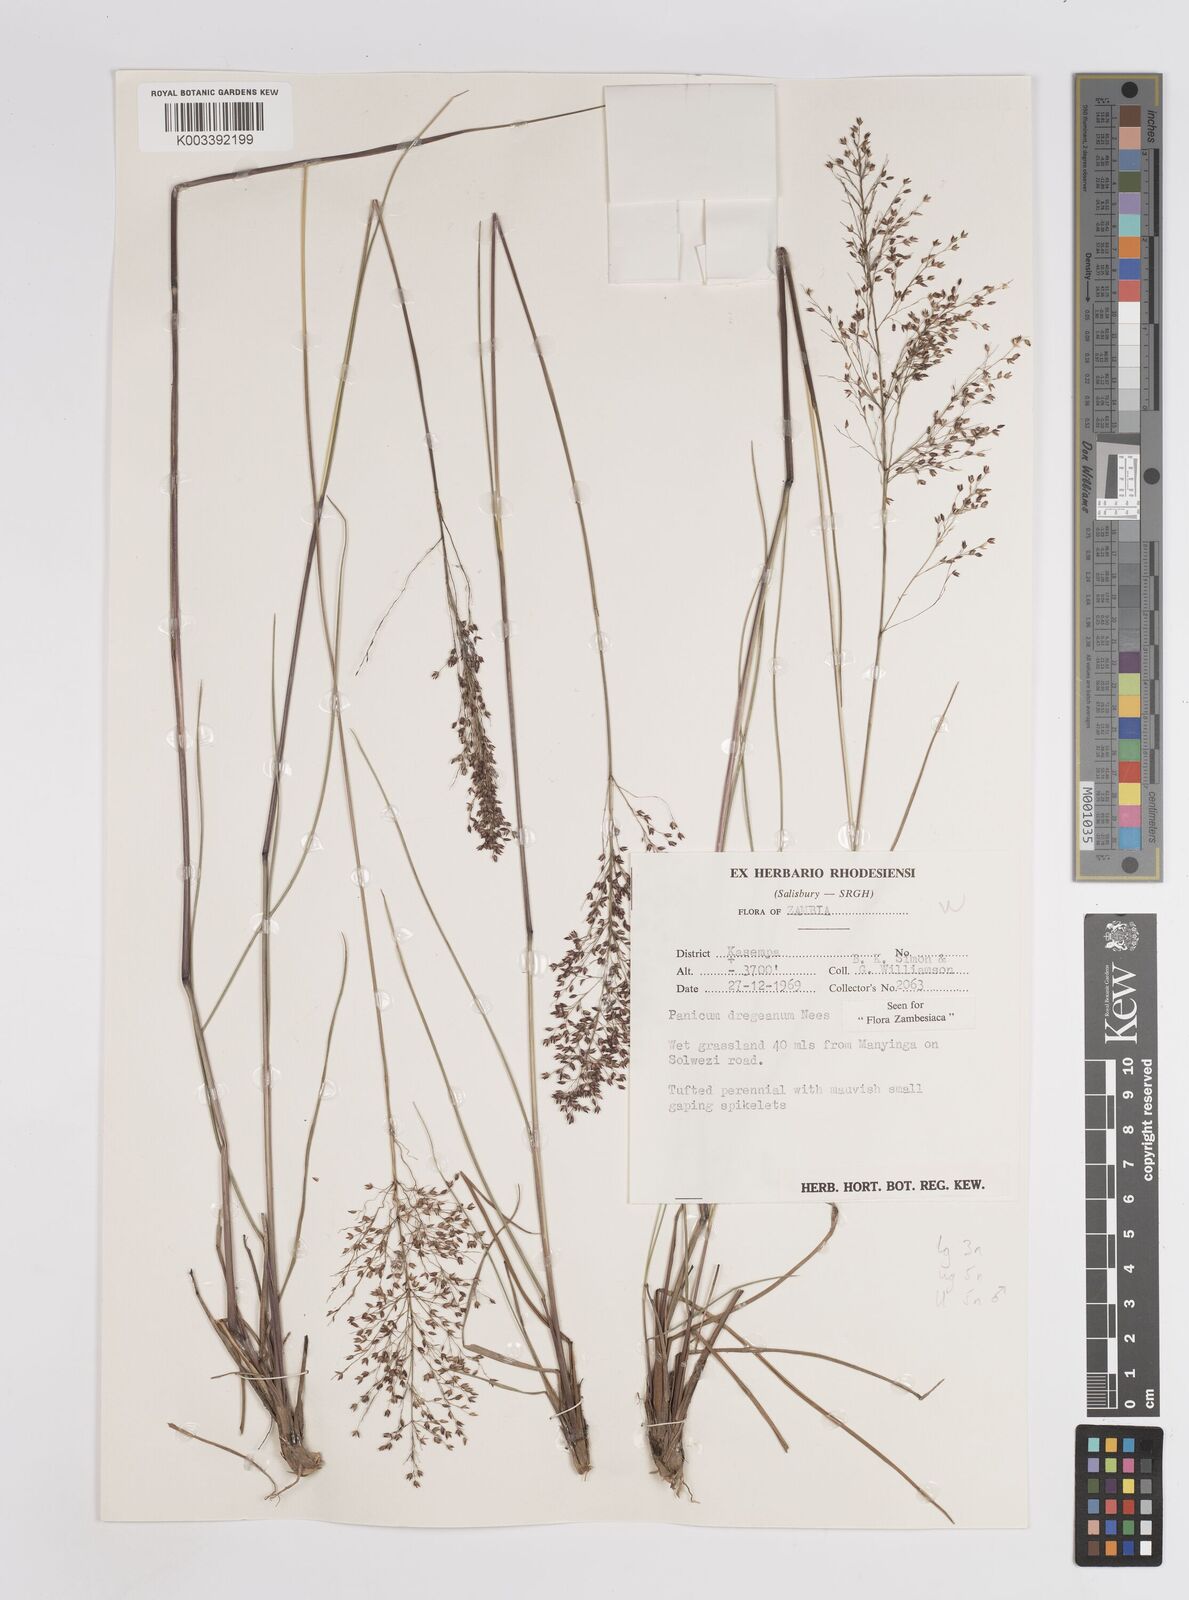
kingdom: Plantae
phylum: Tracheophyta
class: Liliopsida
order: Poales
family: Poaceae
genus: Panicum
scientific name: Panicum dregeanum
